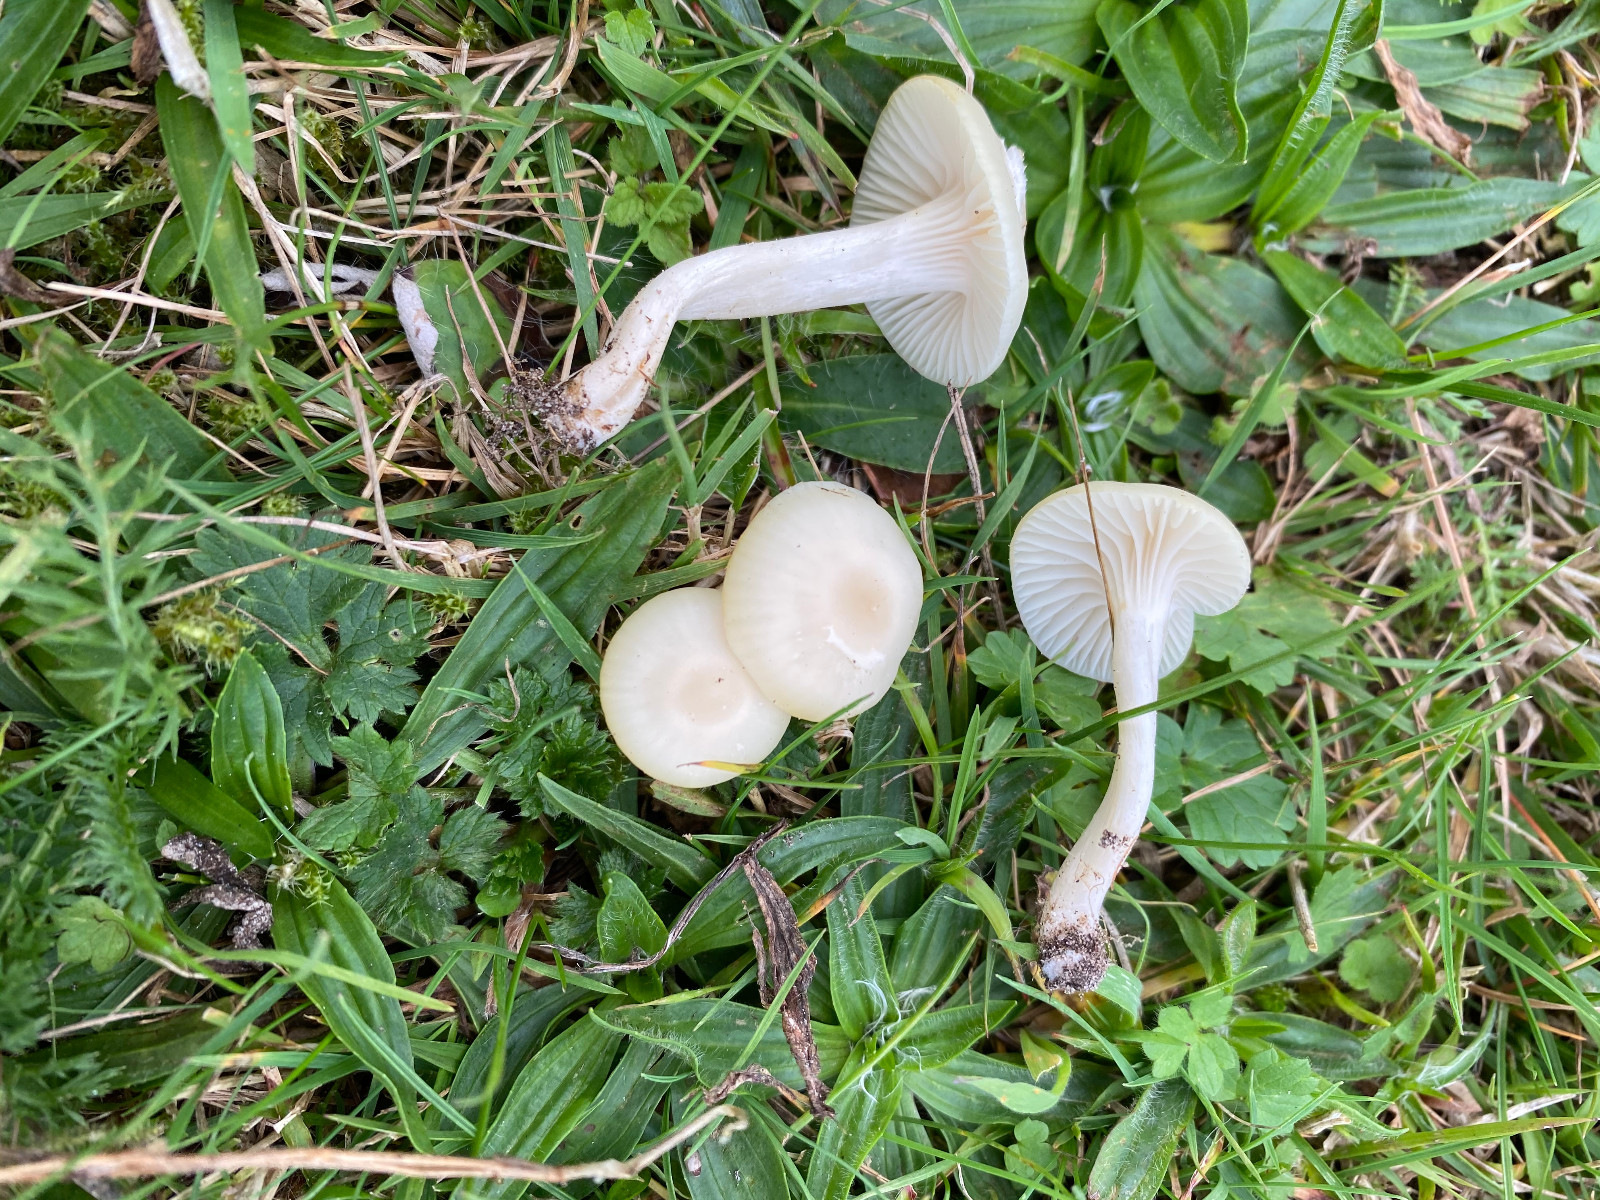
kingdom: Fungi
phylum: Basidiomycota
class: Agaricomycetes
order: Agaricales
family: Hygrophoraceae
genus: Cuphophyllus
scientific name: Cuphophyllus virgineus
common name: snehvid vokshat
